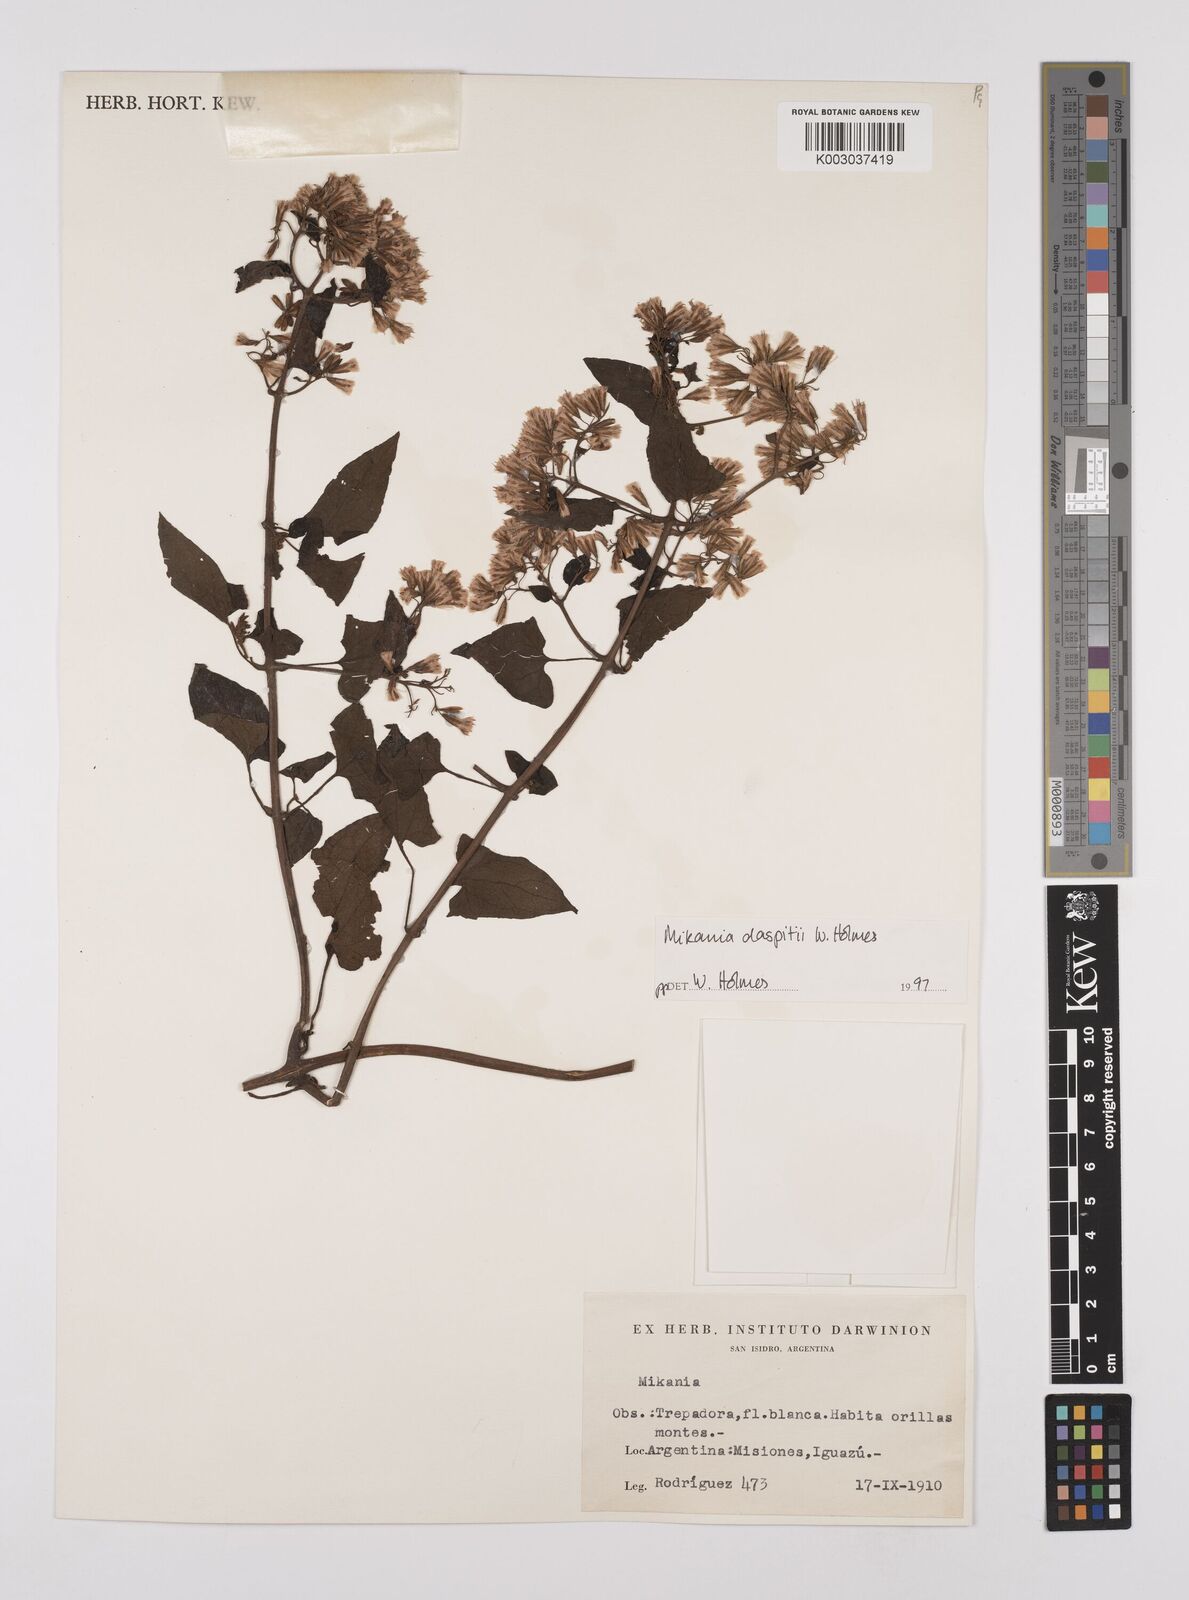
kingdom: Plantae
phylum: Tracheophyta
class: Magnoliopsida
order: Asterales
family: Asteraceae
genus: Mikania
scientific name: Mikania daspitii
